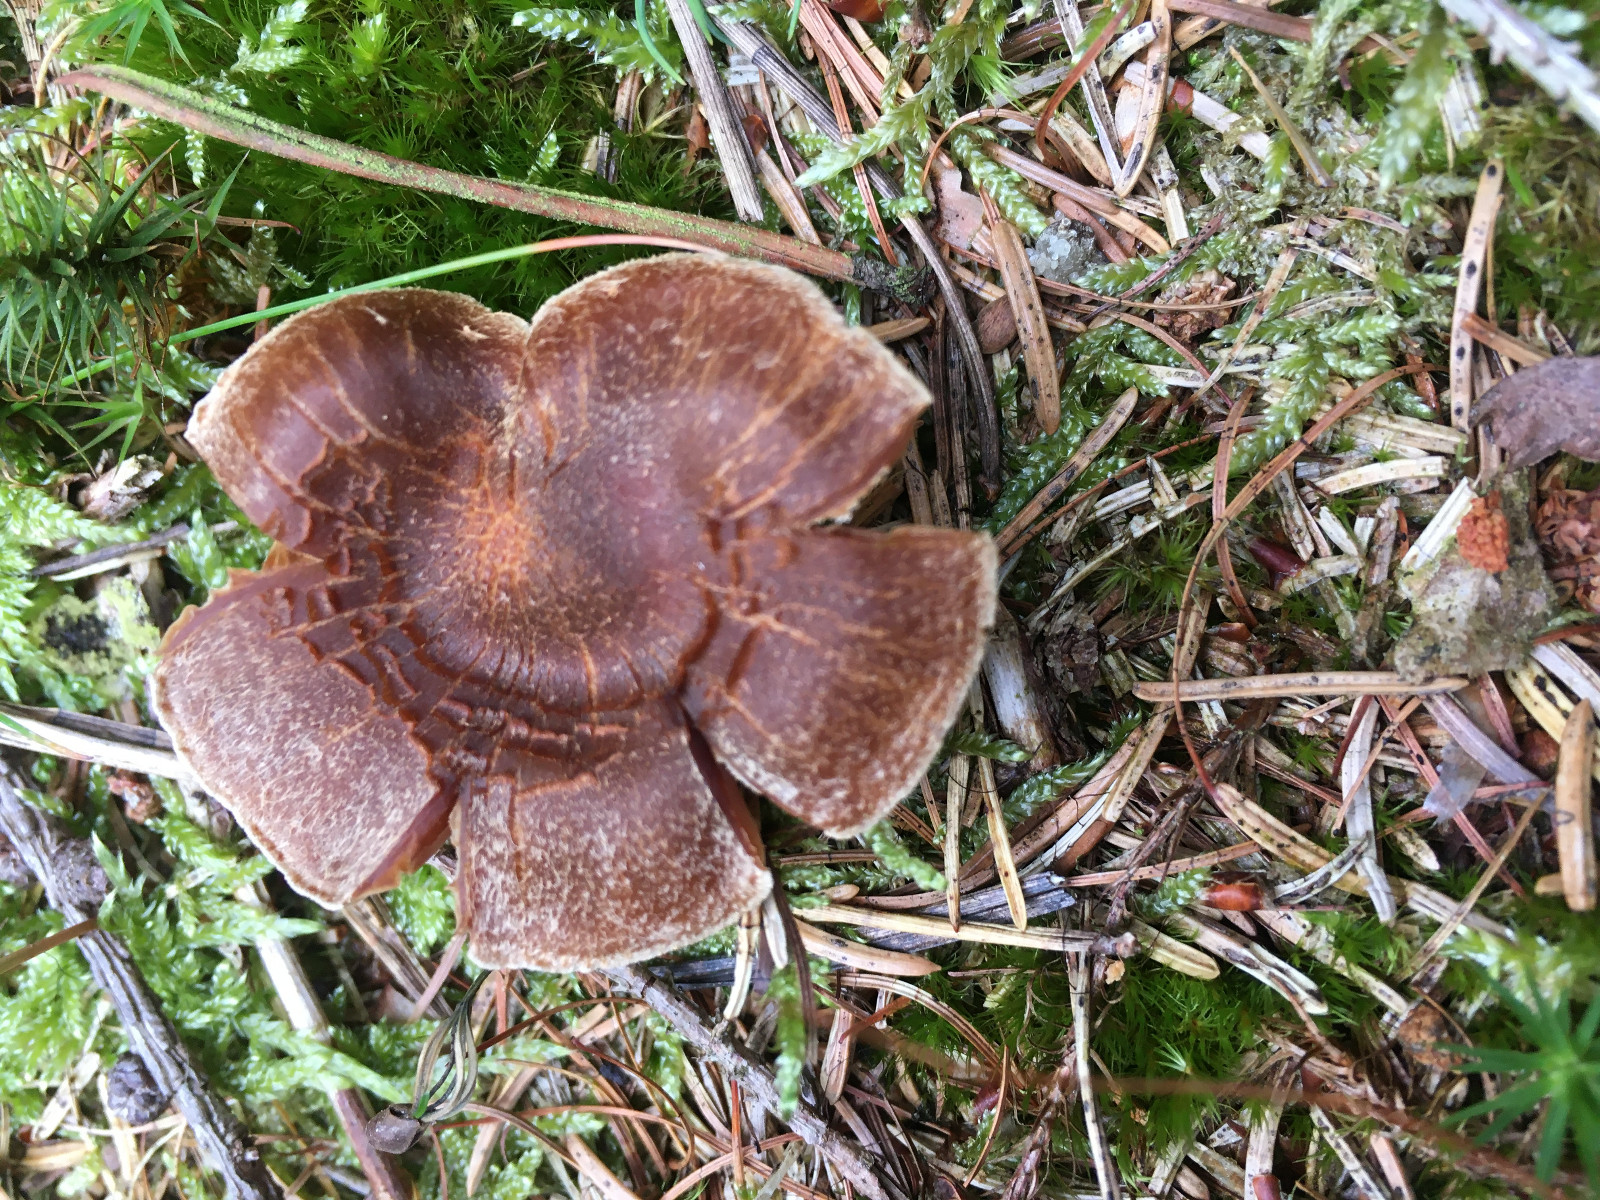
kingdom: Fungi
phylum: Basidiomycota
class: Agaricomycetes
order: Agaricales
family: Cortinariaceae
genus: Cortinarius
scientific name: Cortinarius pinisquamulosus
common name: finskællet slørhat
